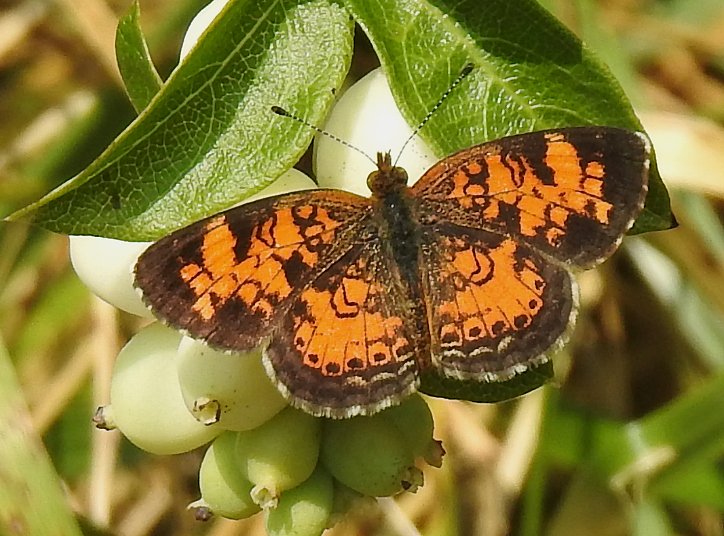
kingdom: Animalia
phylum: Arthropoda
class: Insecta
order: Lepidoptera
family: Nymphalidae
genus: Phyciodes
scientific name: Phyciodes tharos
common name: Pearl Crescent
